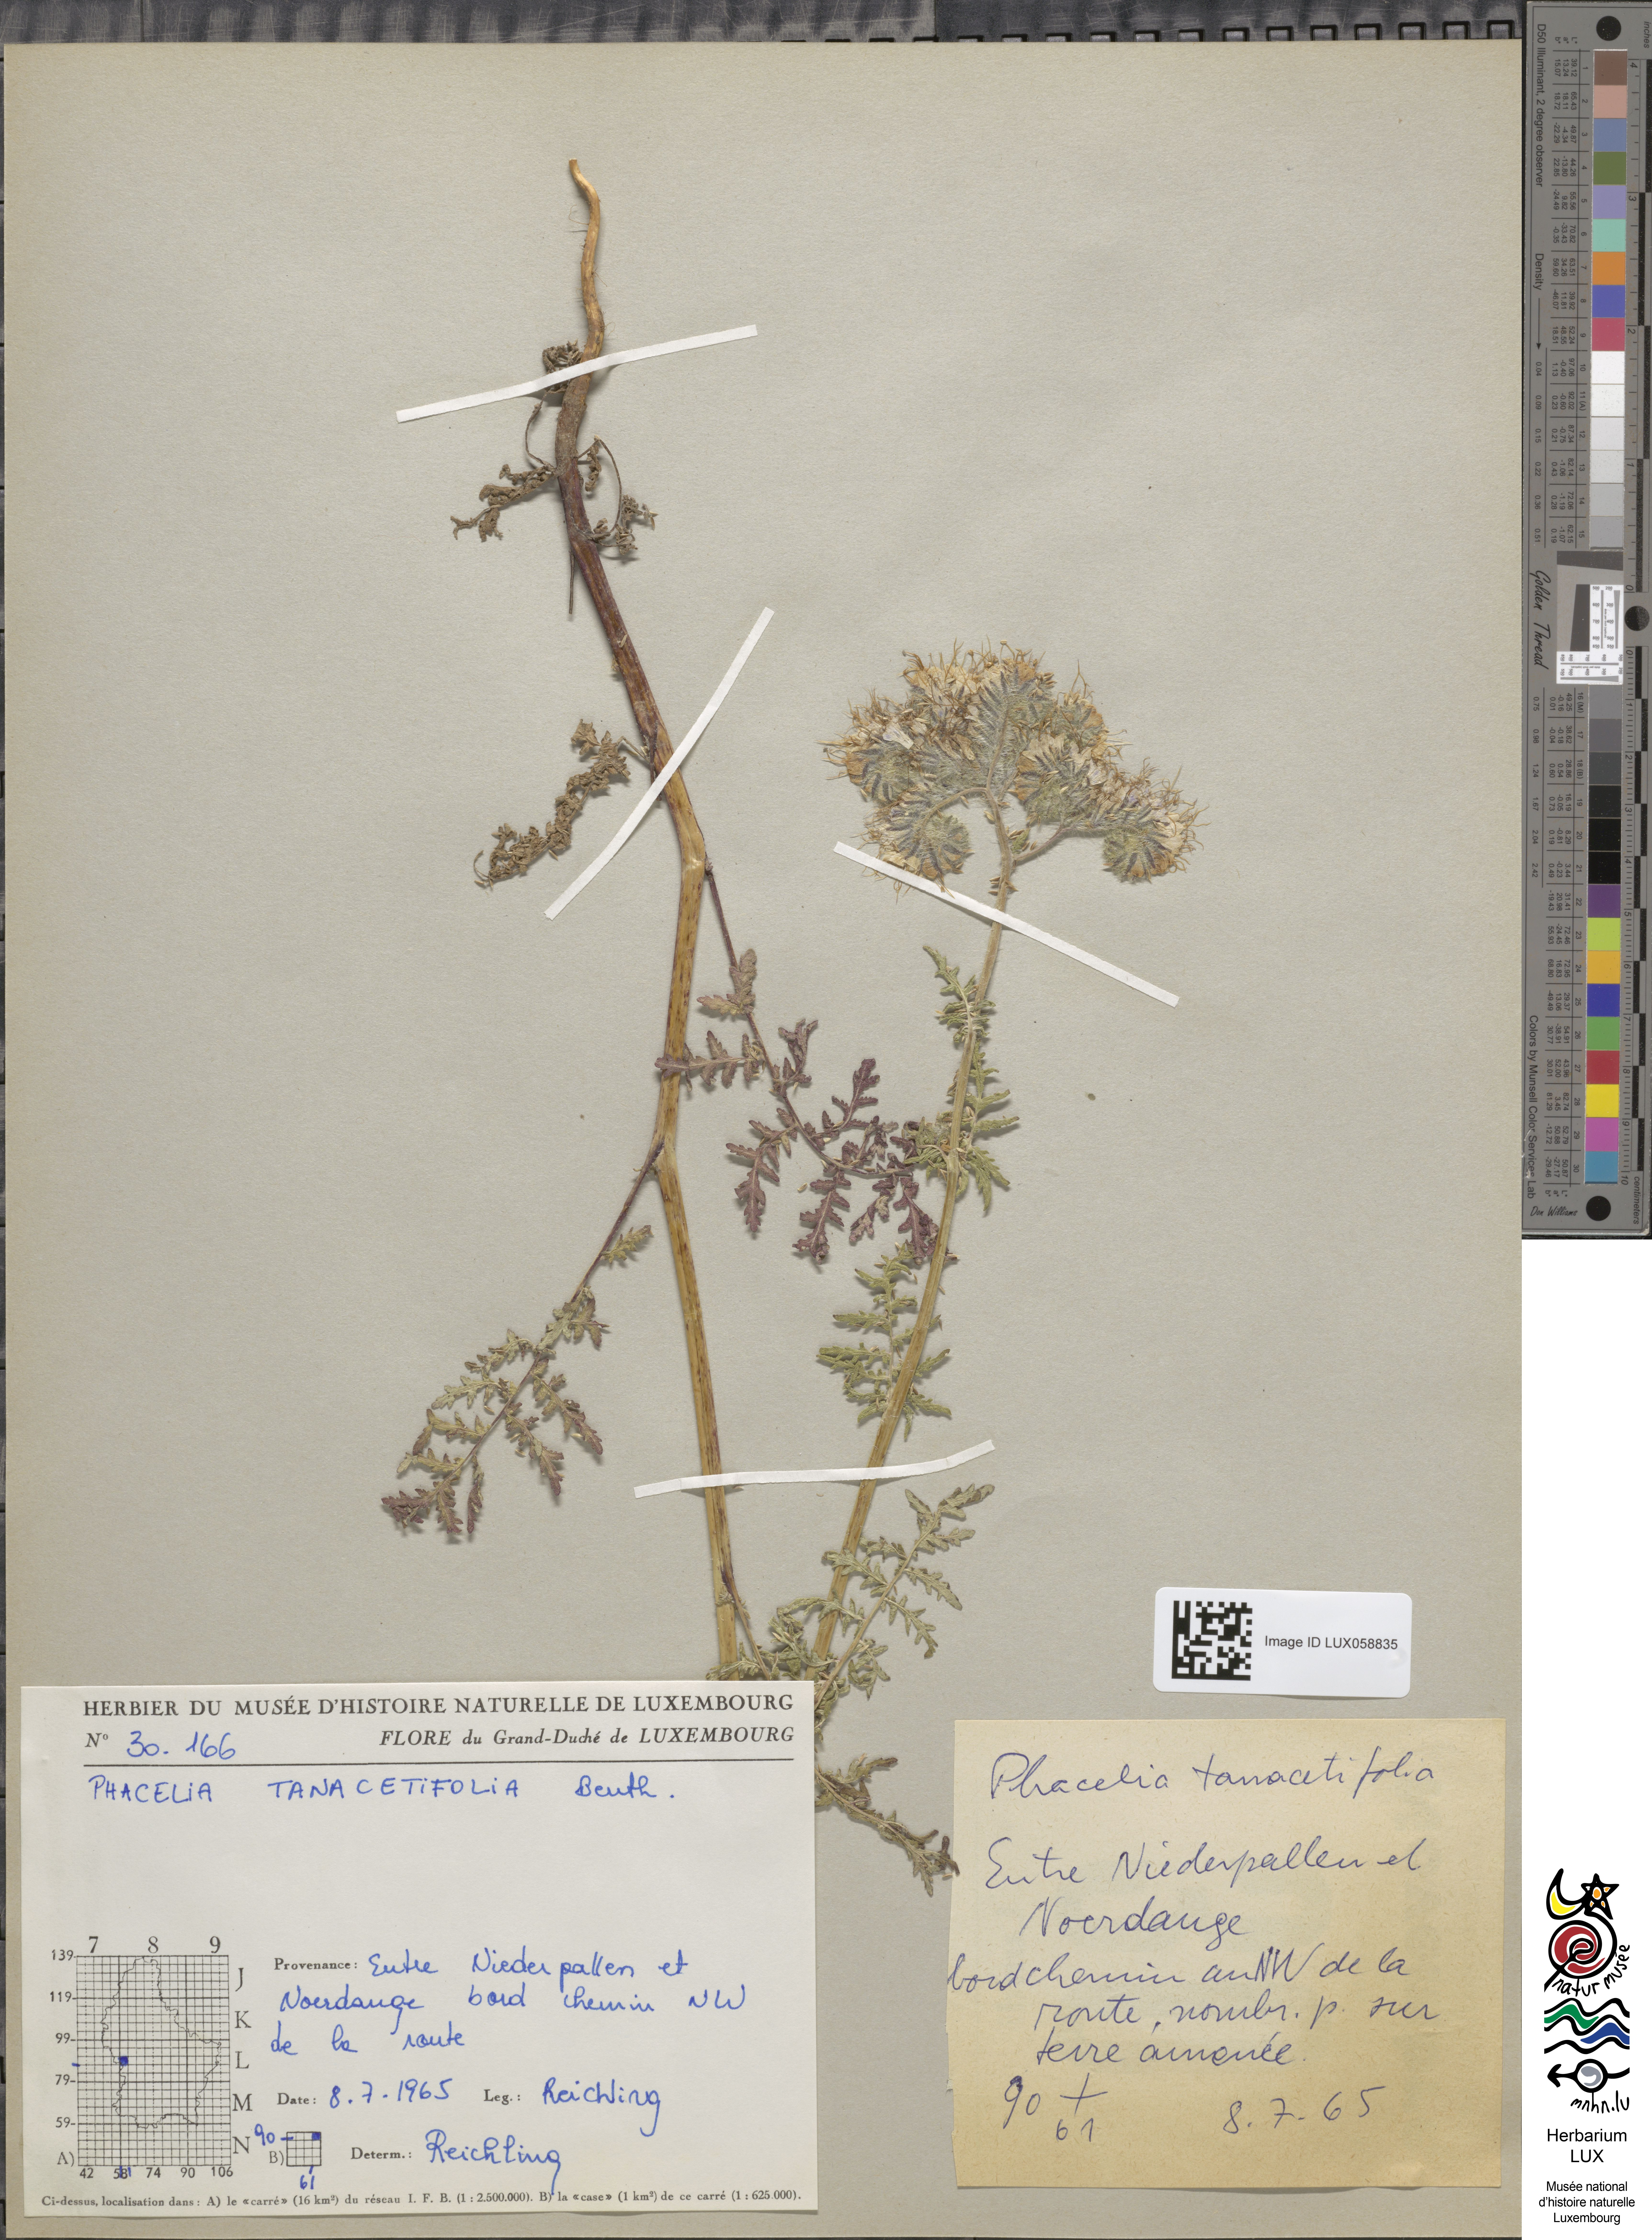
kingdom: Plantae
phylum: Tracheophyta
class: Magnoliopsida
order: Boraginales
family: Hydrophyllaceae
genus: Phacelia
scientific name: Phacelia tanacetifolia
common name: Phacelia
